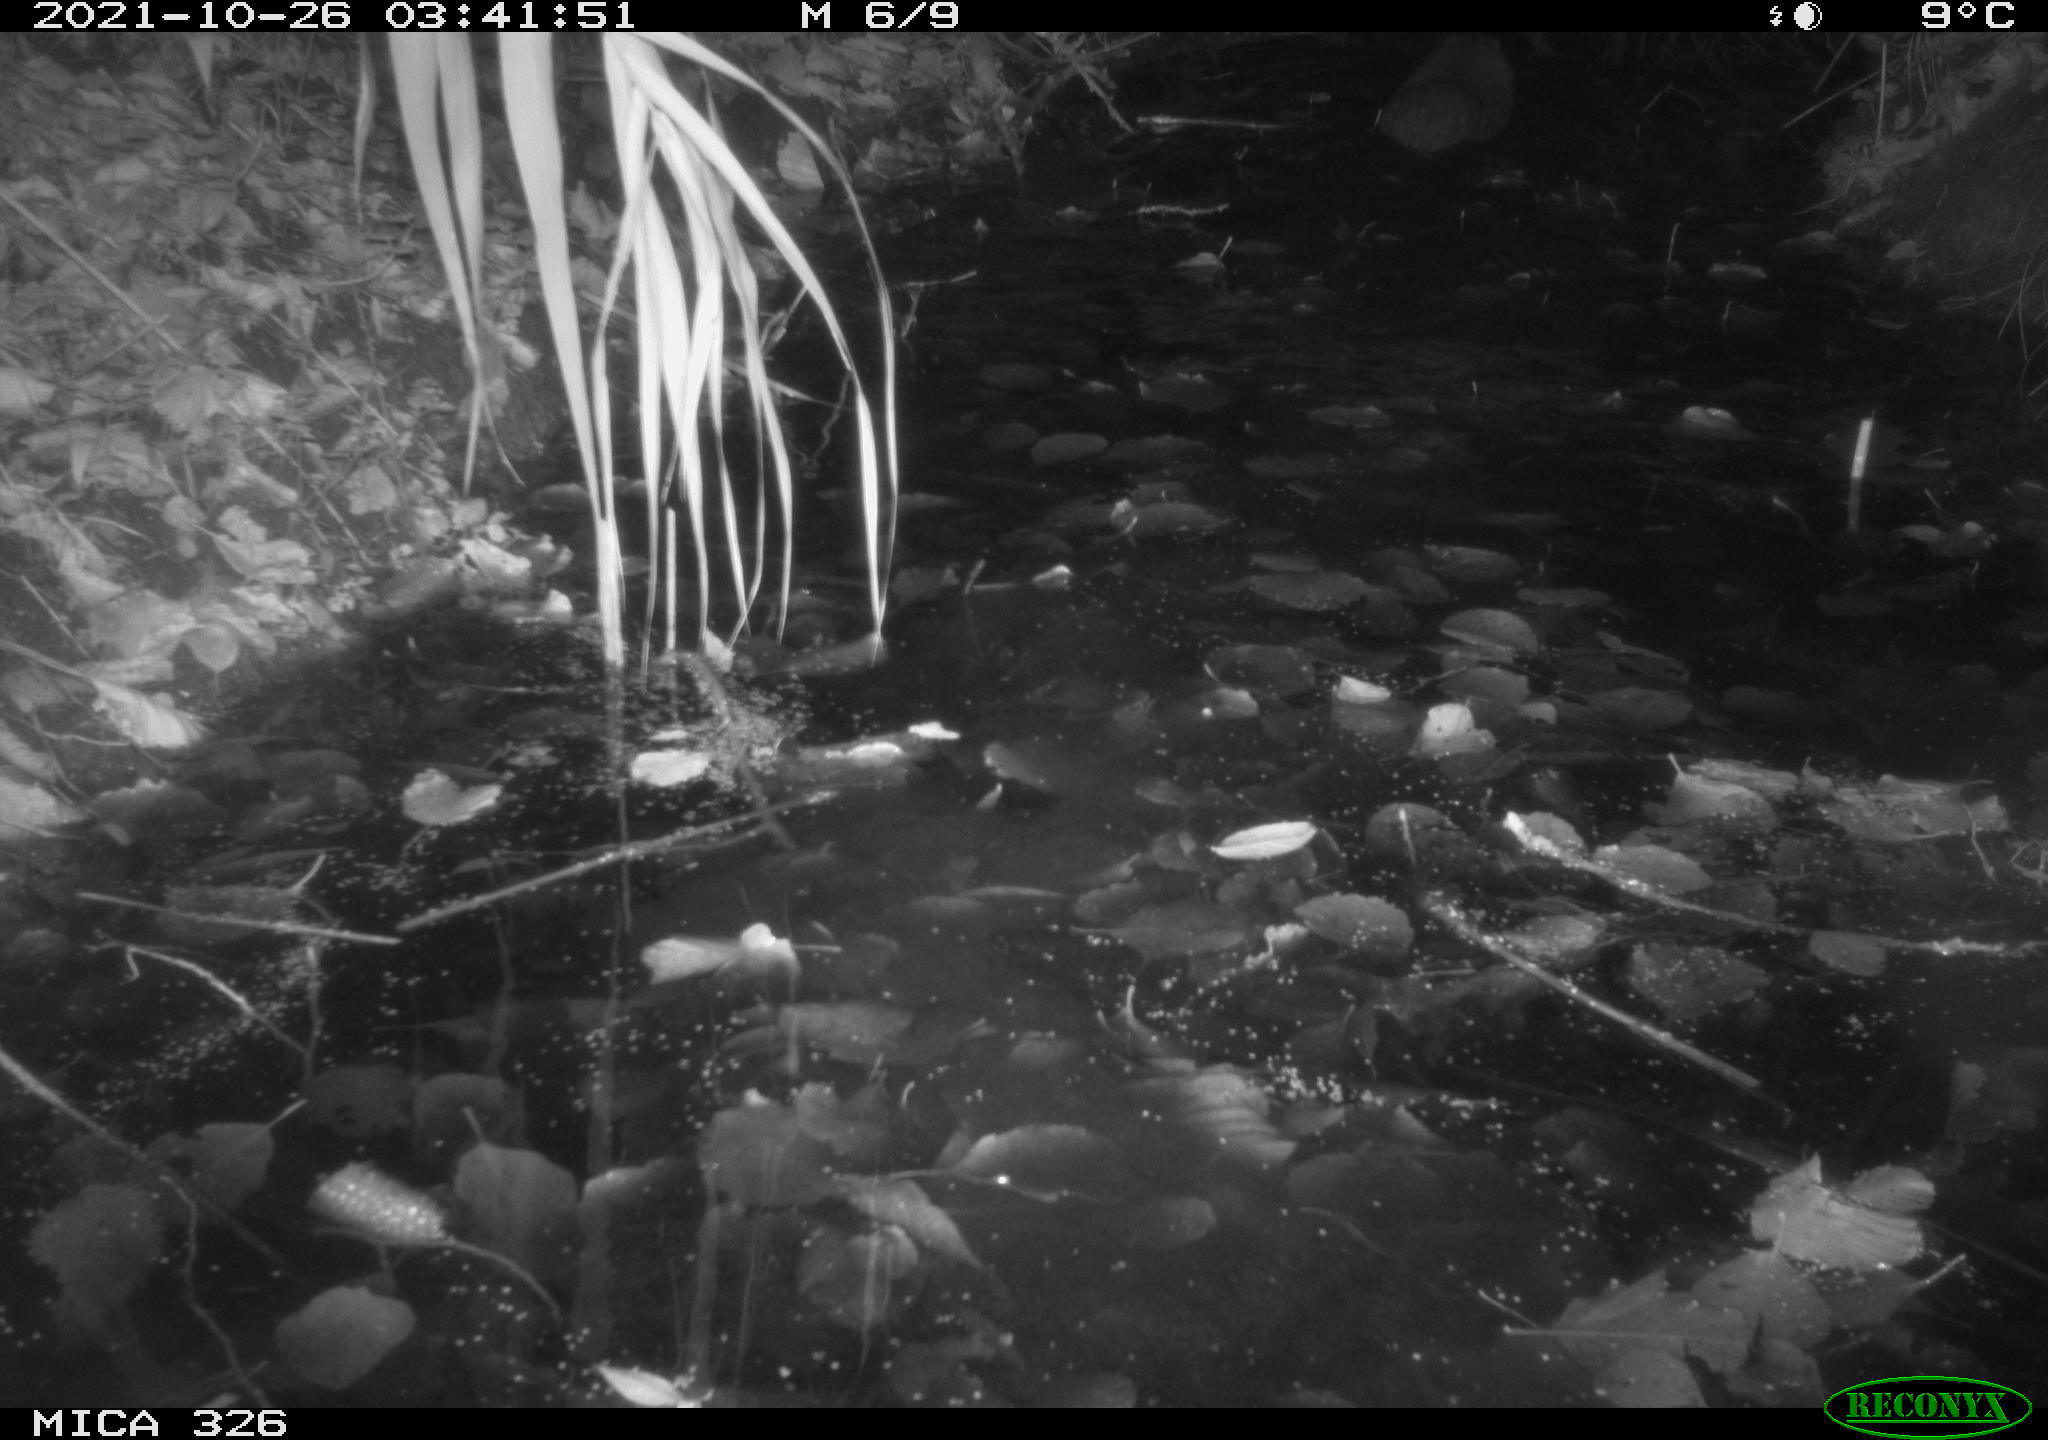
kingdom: Animalia
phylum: Chordata
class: Mammalia
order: Rodentia
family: Myocastoridae
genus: Myocastor
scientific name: Myocastor coypus
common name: Coypu
